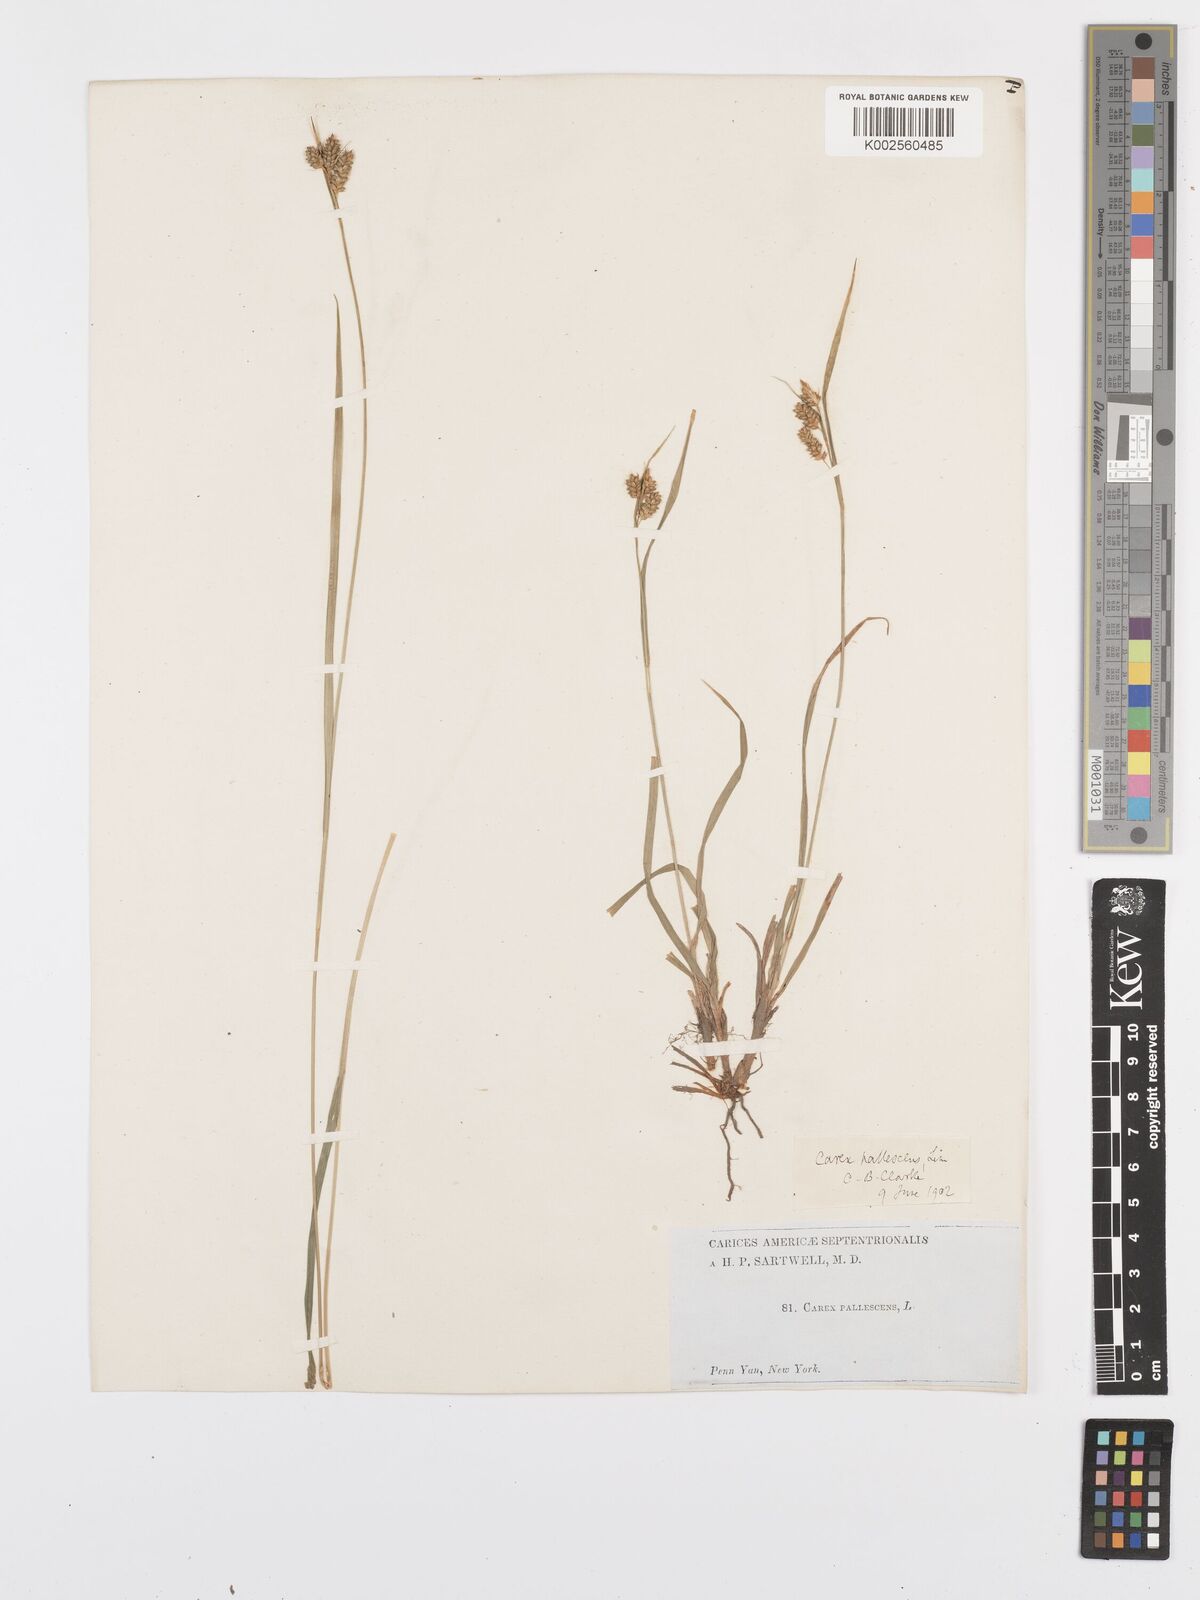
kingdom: Plantae
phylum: Tracheophyta
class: Liliopsida
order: Poales
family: Cyperaceae
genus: Carex
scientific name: Carex pallescens
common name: Pale sedge
